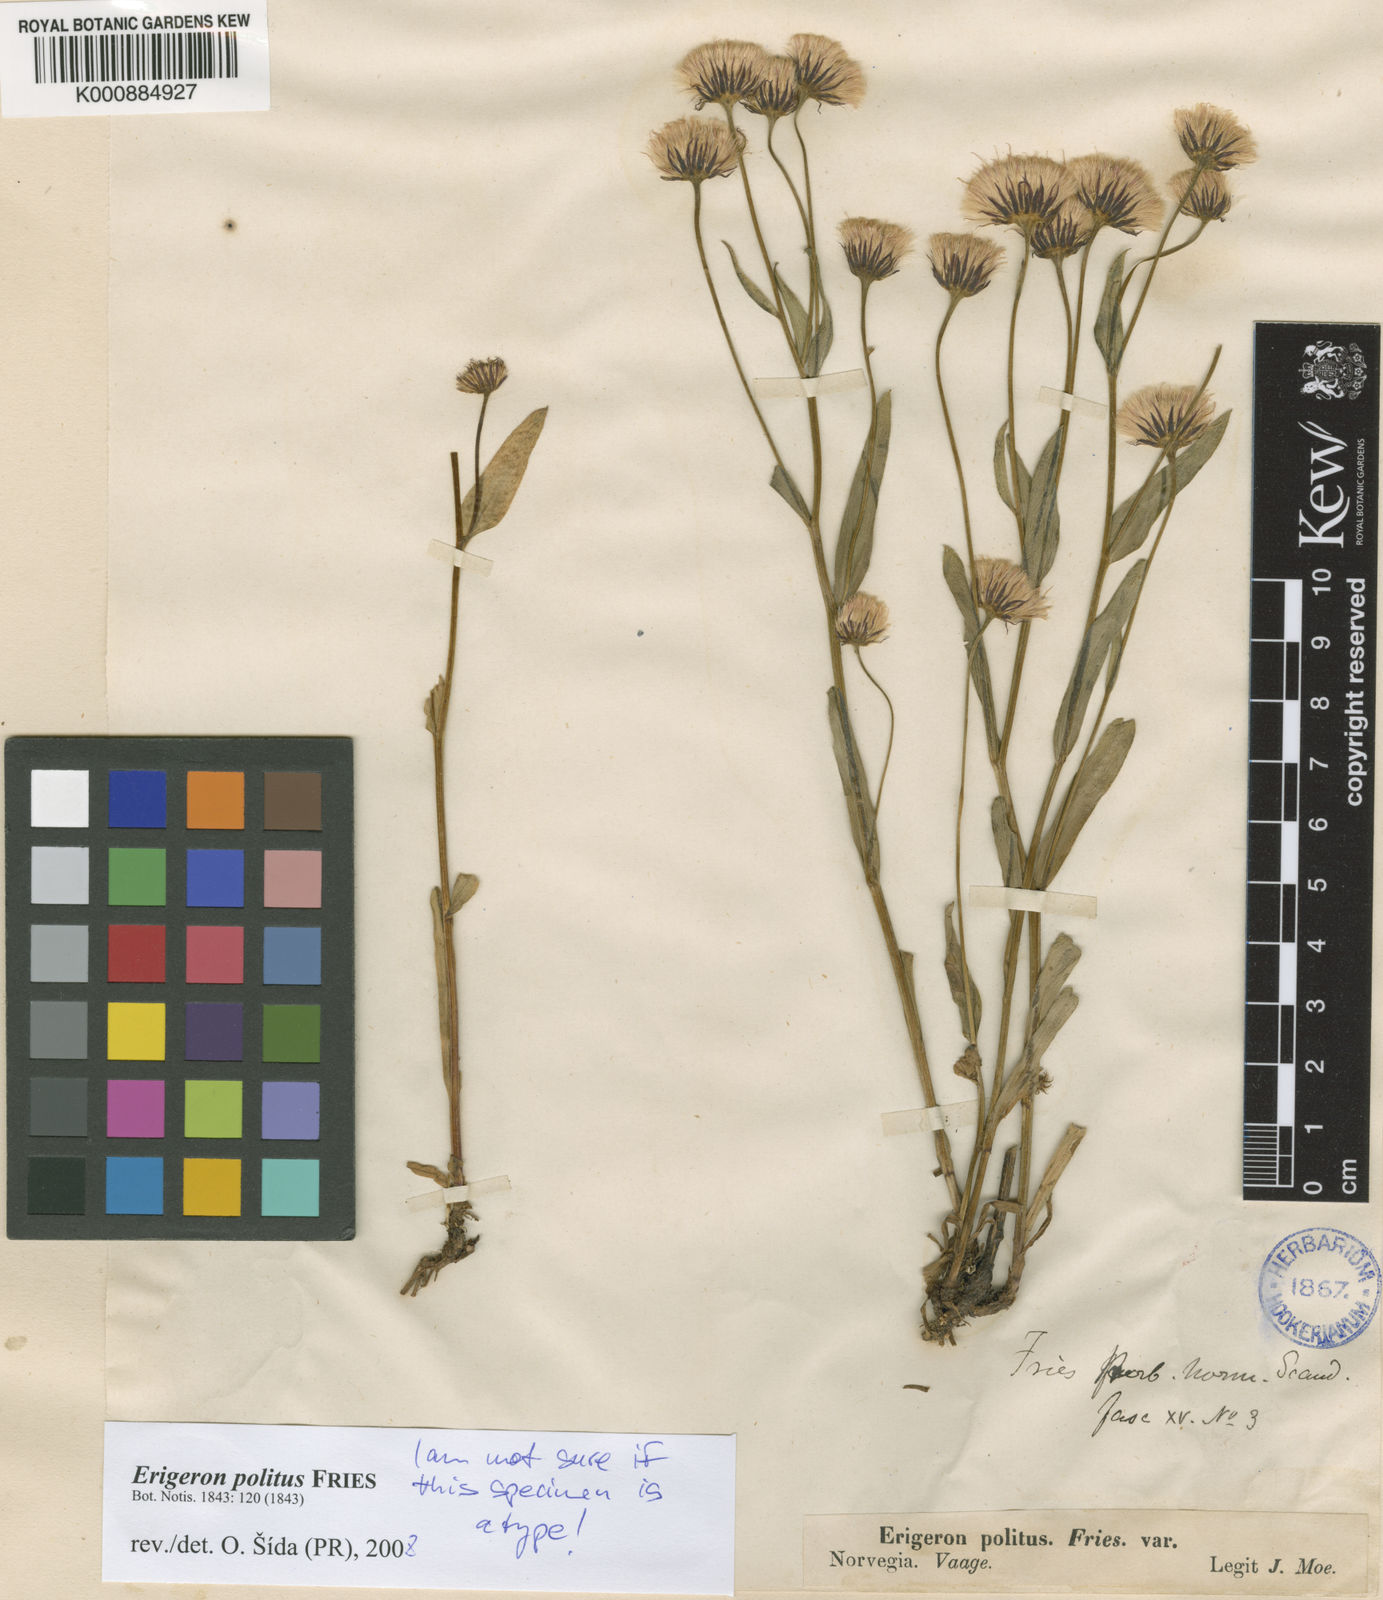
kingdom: Plantae
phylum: Tracheophyta
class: Magnoliopsida
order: Asterales
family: Asteraceae
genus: Erigeron
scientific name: Erigeron
